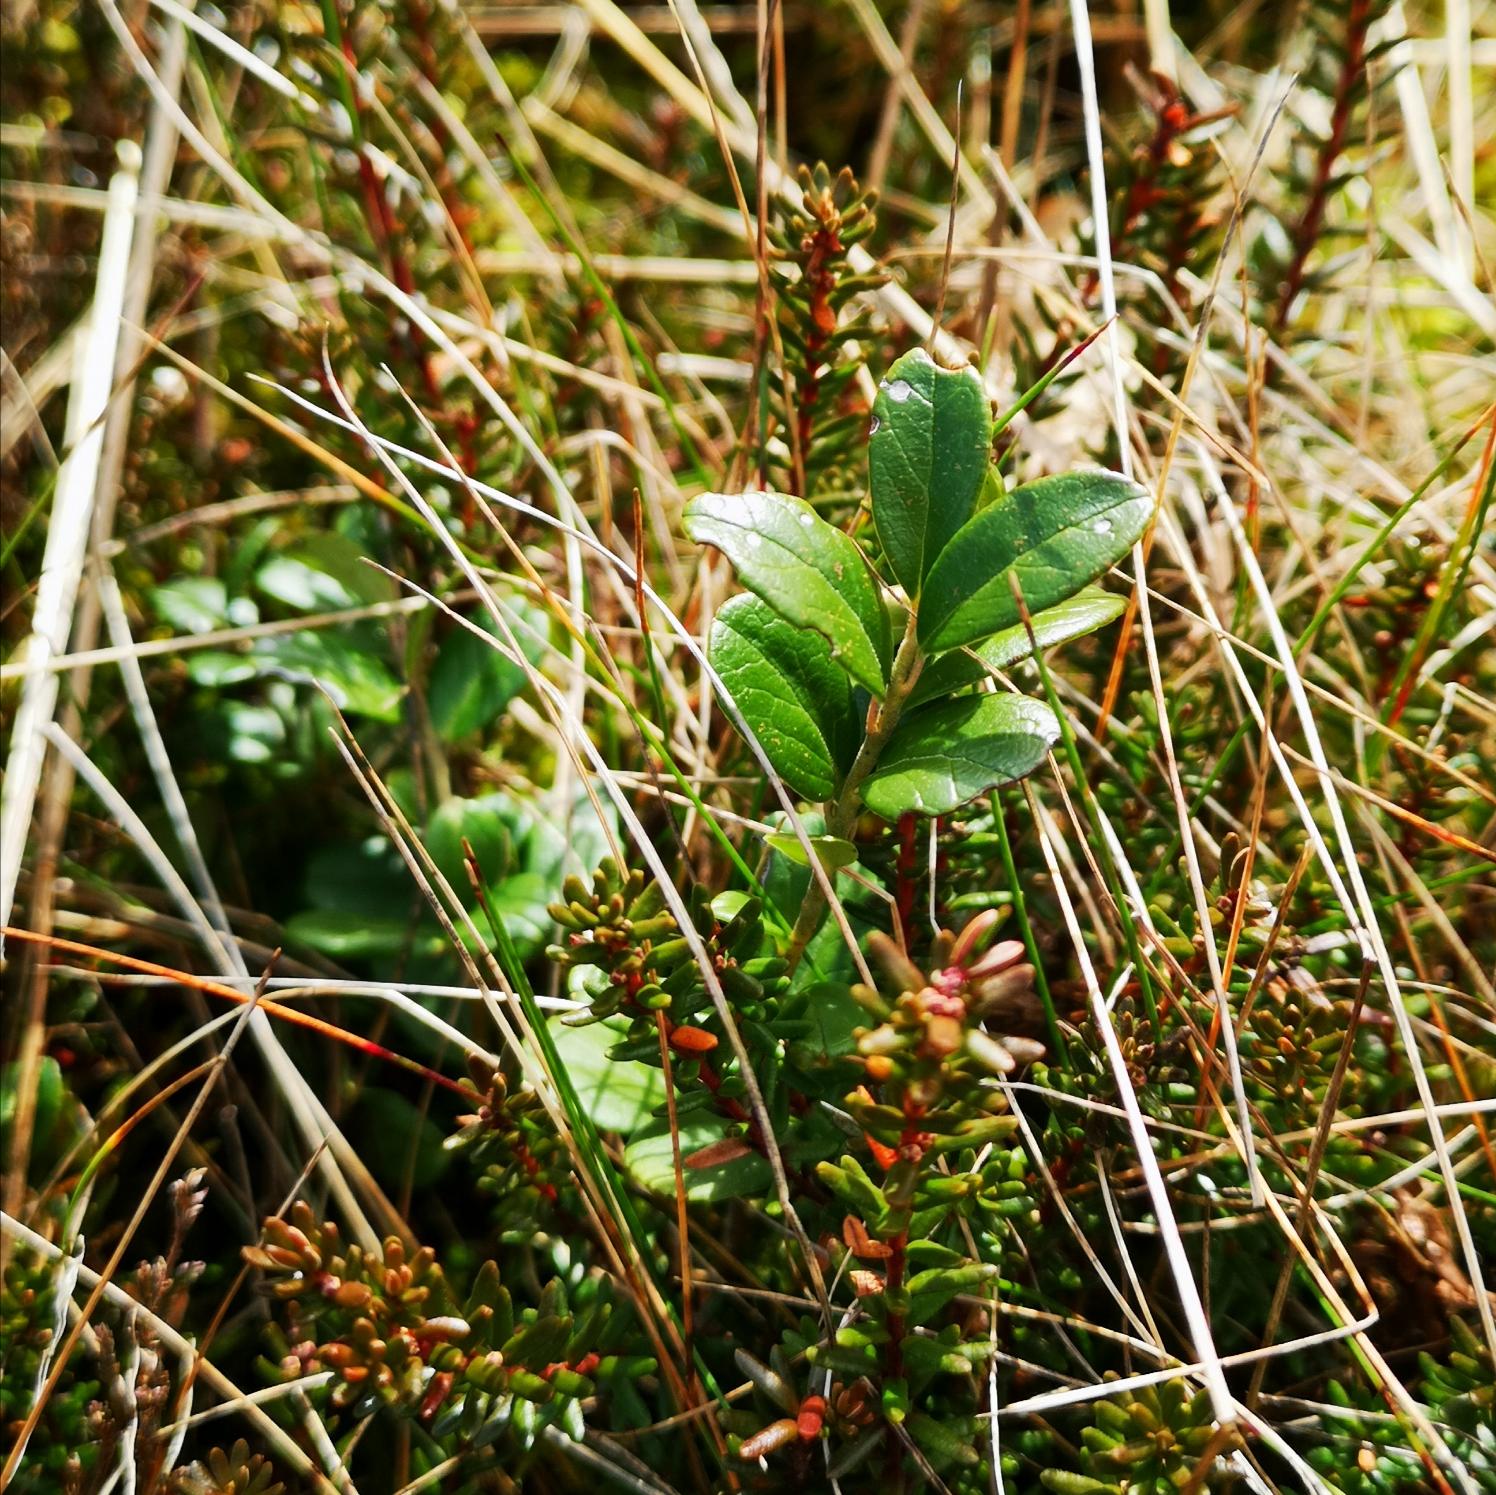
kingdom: Plantae
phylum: Tracheophyta
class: Magnoliopsida
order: Ericales
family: Ericaceae
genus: Vaccinium
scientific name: Vaccinium vitis-idaea
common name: Tyttebær
